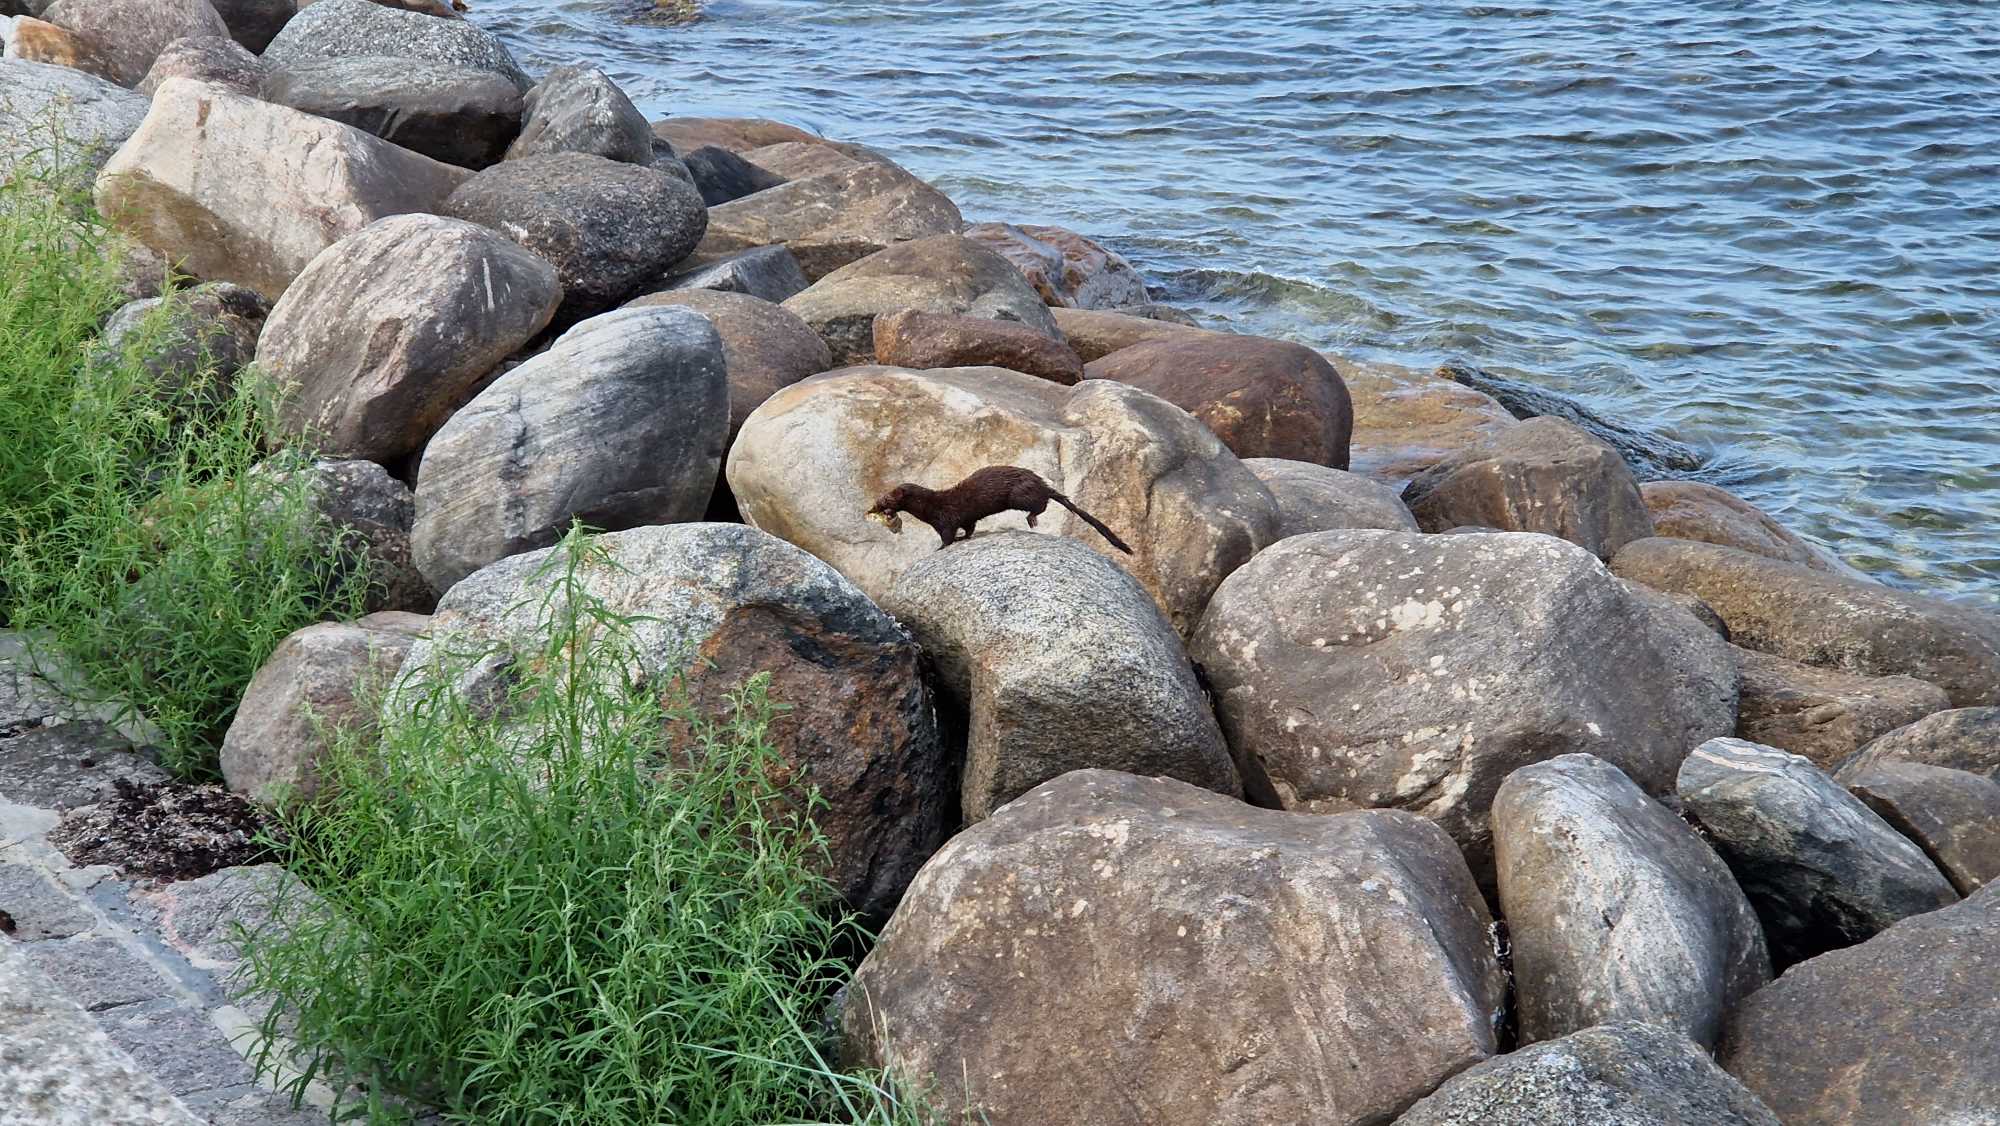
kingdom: Animalia
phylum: Chordata
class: Mammalia
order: Carnivora
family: Mustelidae
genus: Mustela
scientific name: Mustela vison
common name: Mink
